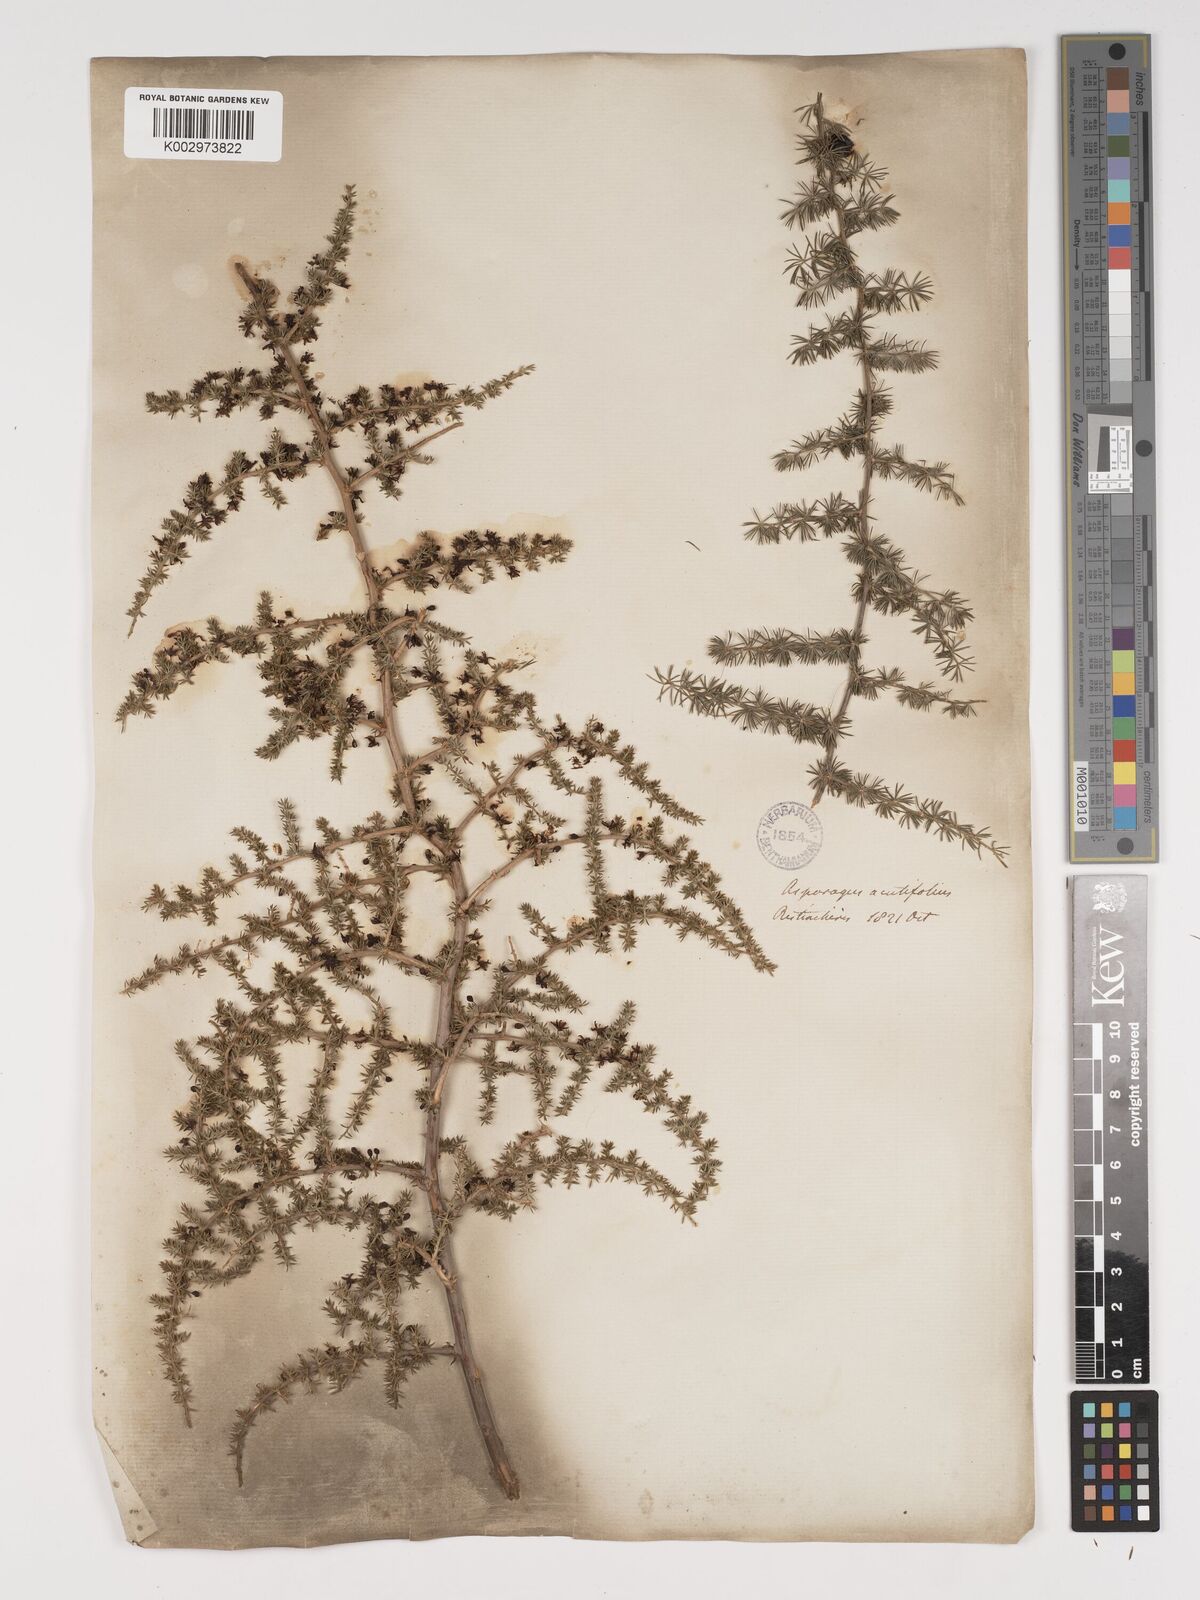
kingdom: Plantae
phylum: Tracheophyta
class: Liliopsida
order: Asparagales
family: Asparagaceae
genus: Asparagus
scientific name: Asparagus aethiopicus
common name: Sprenger's asparagus fern
